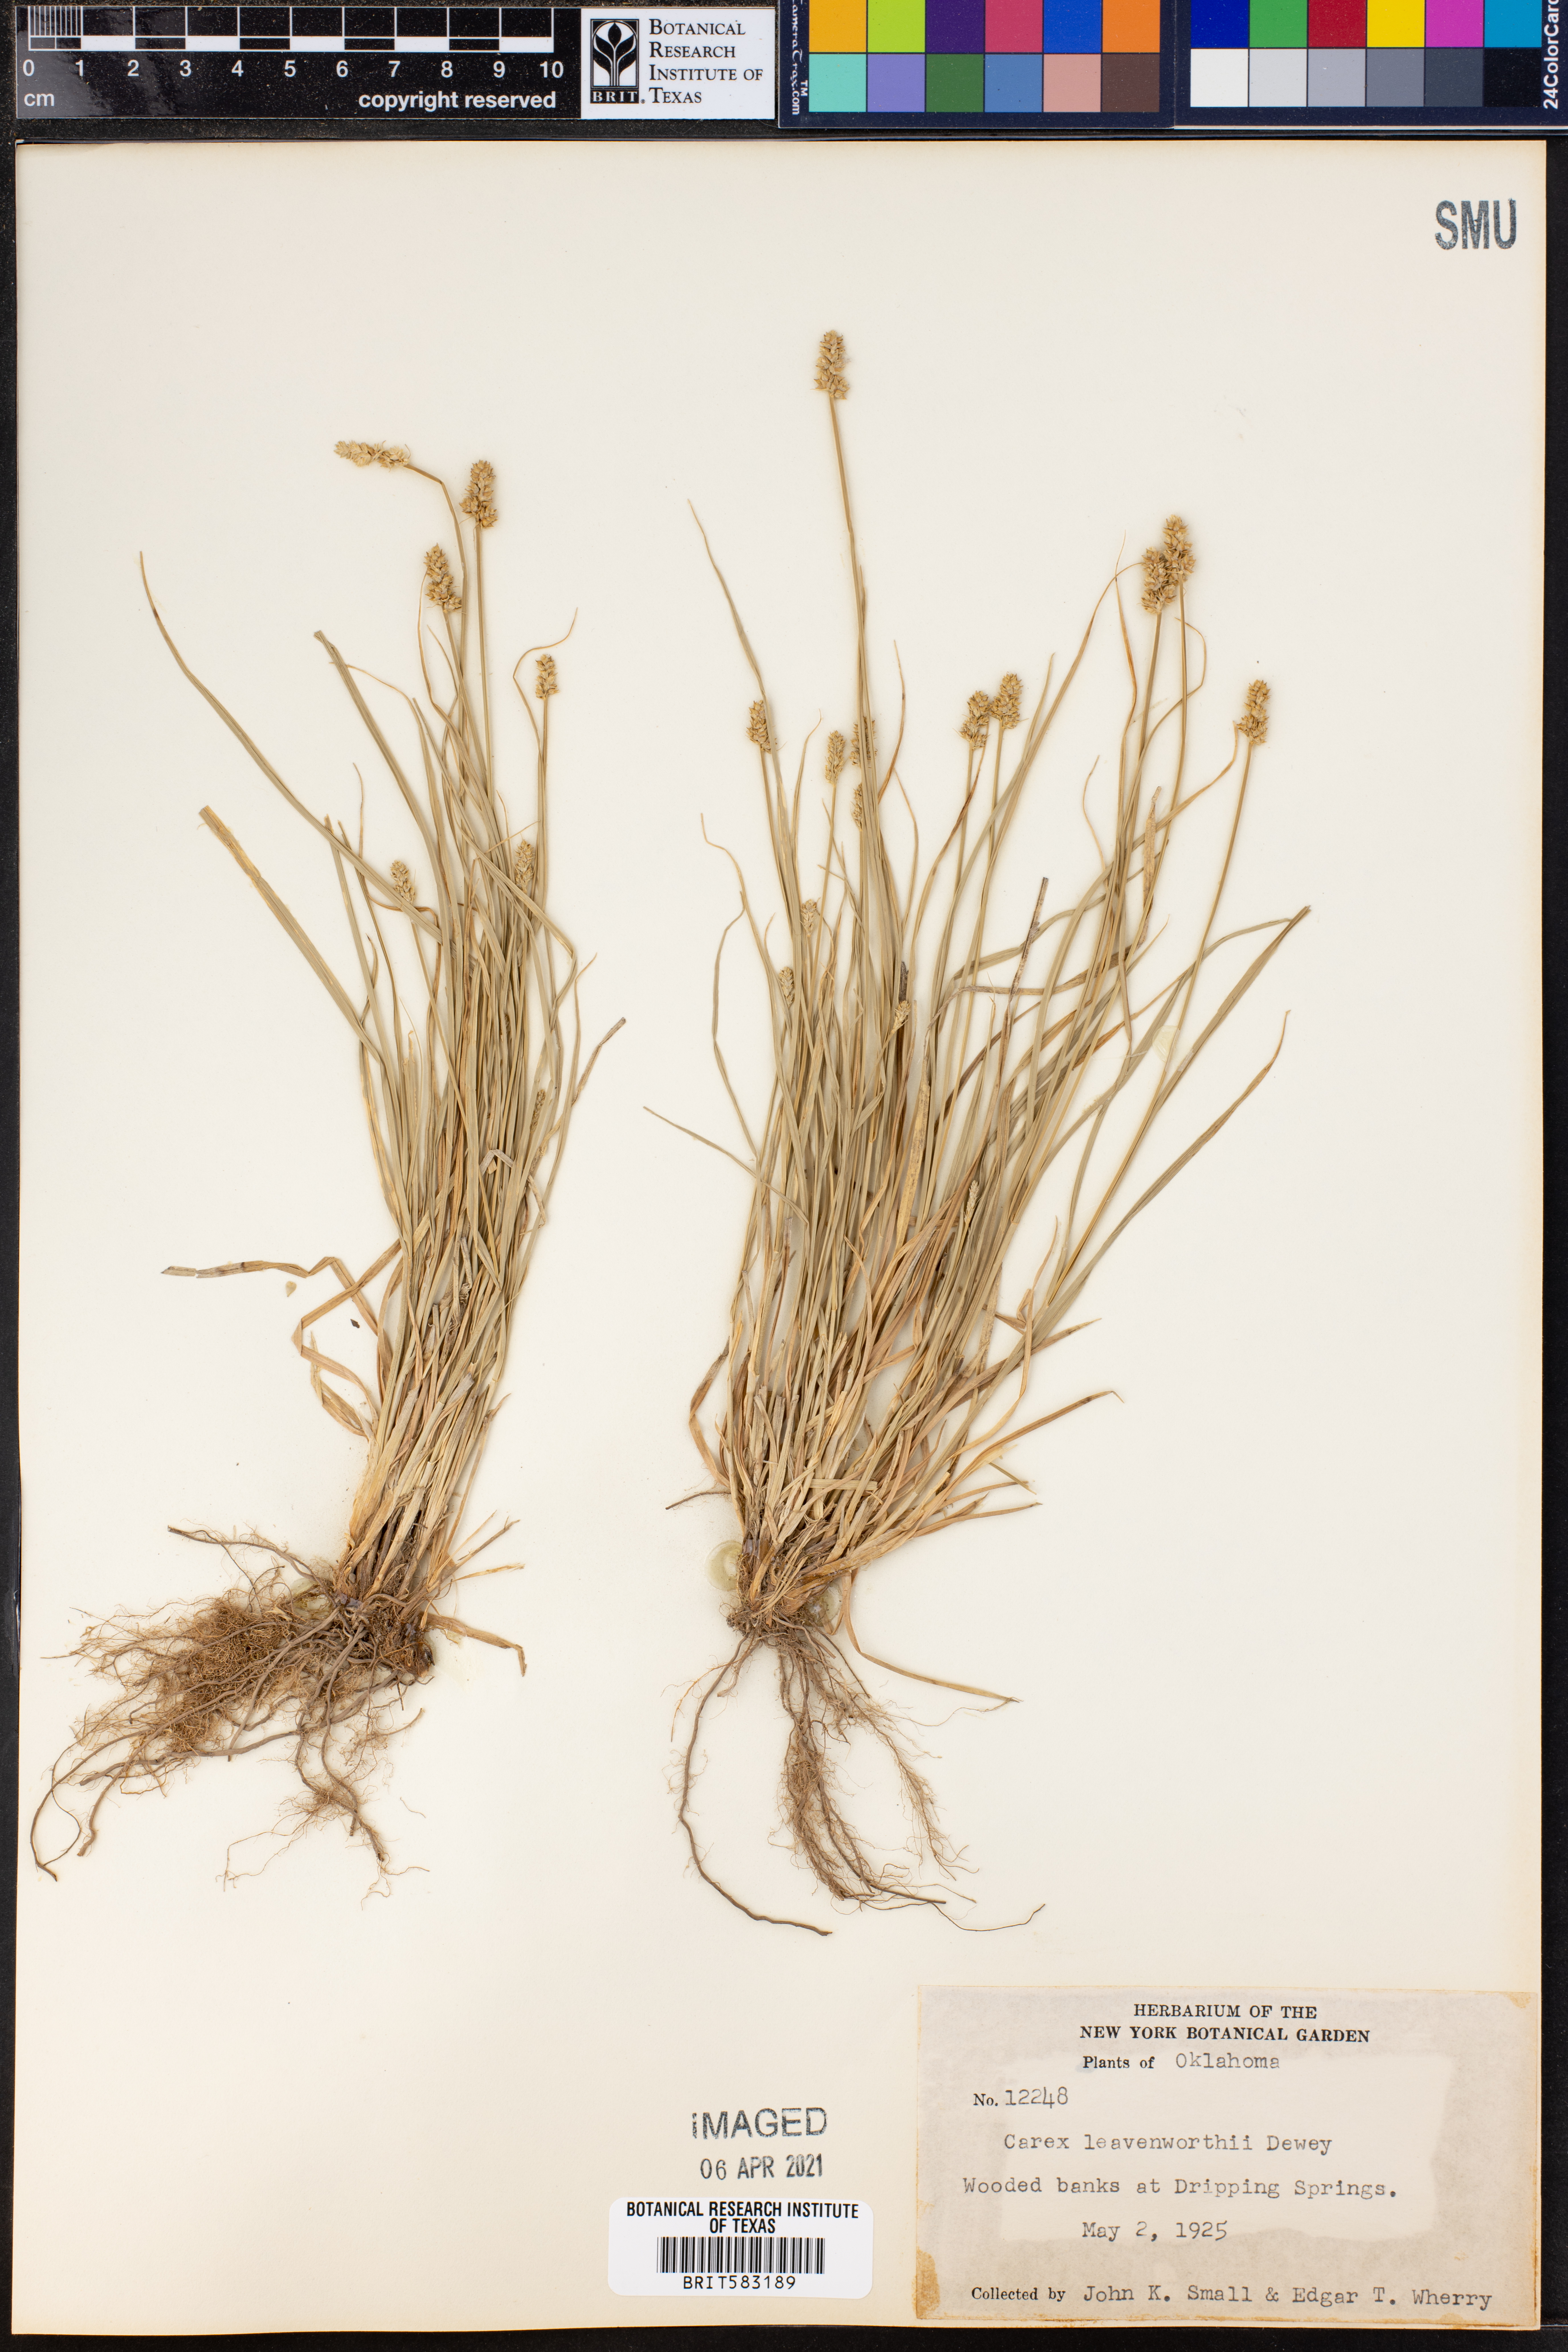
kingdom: Plantae
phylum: Tracheophyta
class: Liliopsida
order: Poales
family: Cyperaceae
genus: Carex
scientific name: Carex leavenworthii
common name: Leavenworth's bracted sedge
